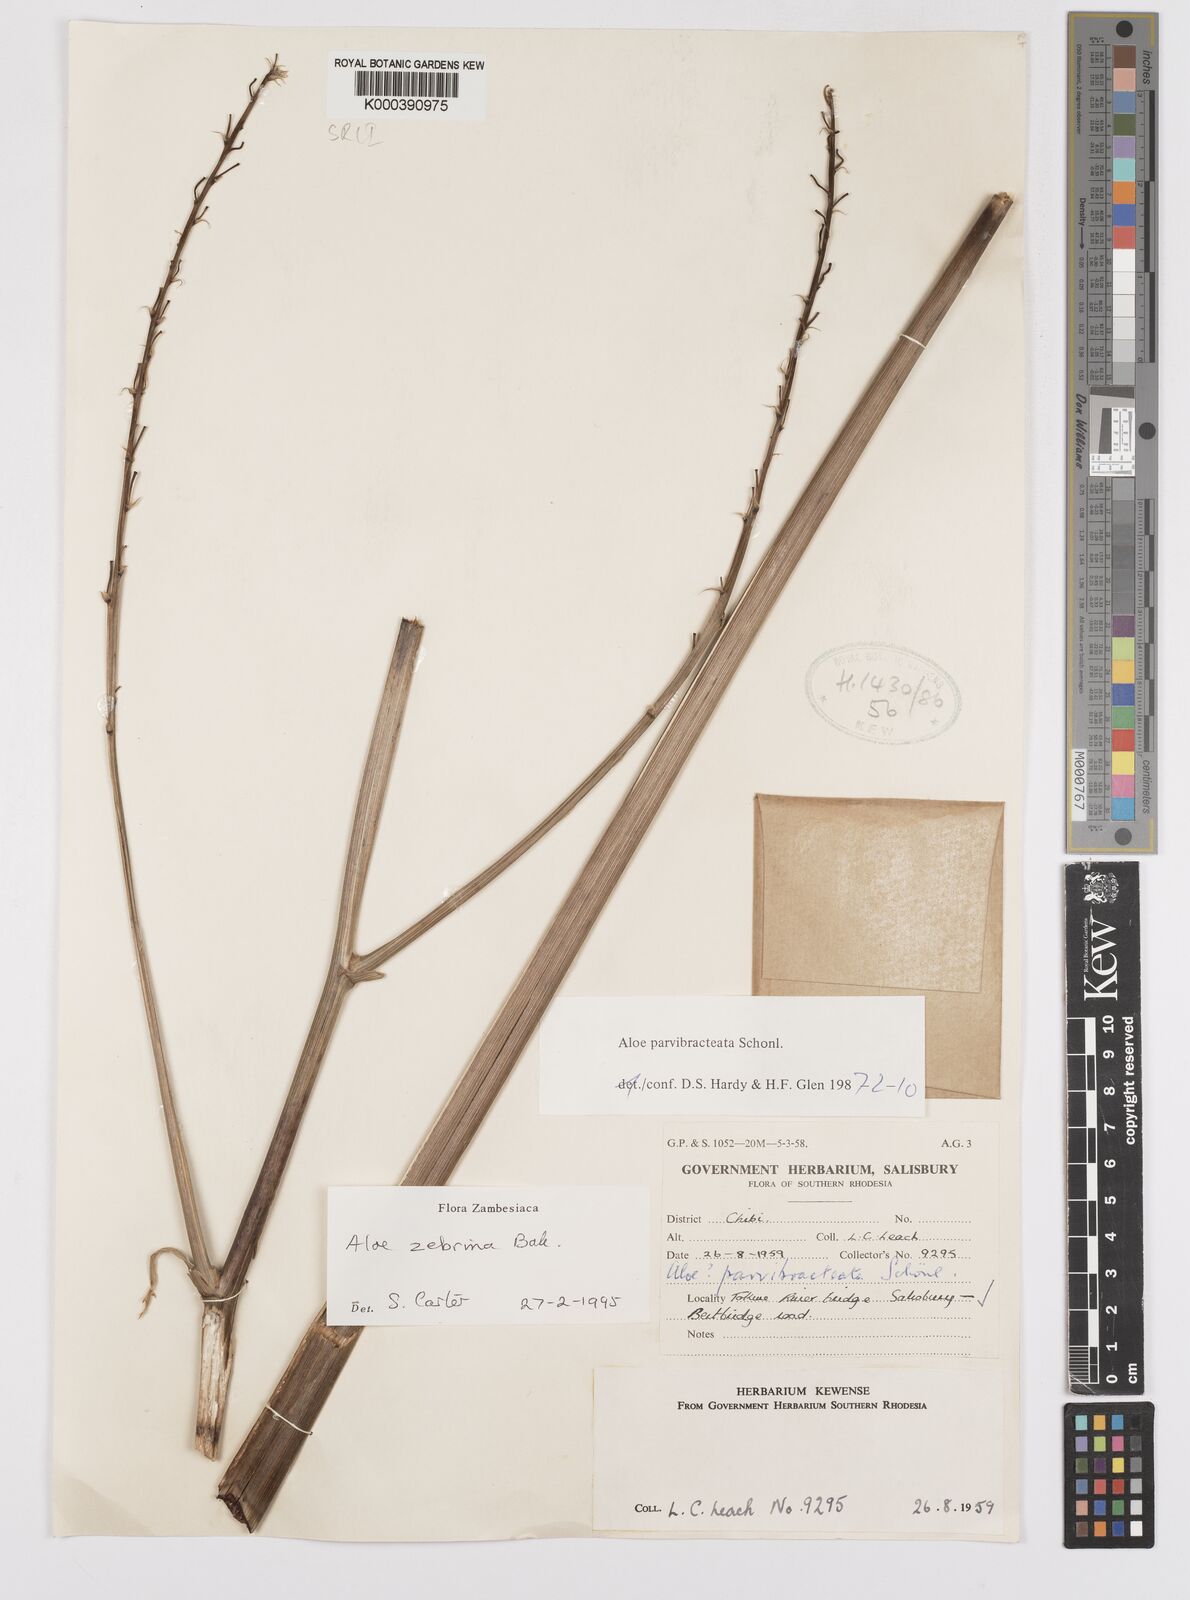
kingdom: Plantae
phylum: Tracheophyta
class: Liliopsida
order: Asparagales
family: Asphodelaceae
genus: Aloe
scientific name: Aloe zebrina
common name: Zebra-leaf aloe
